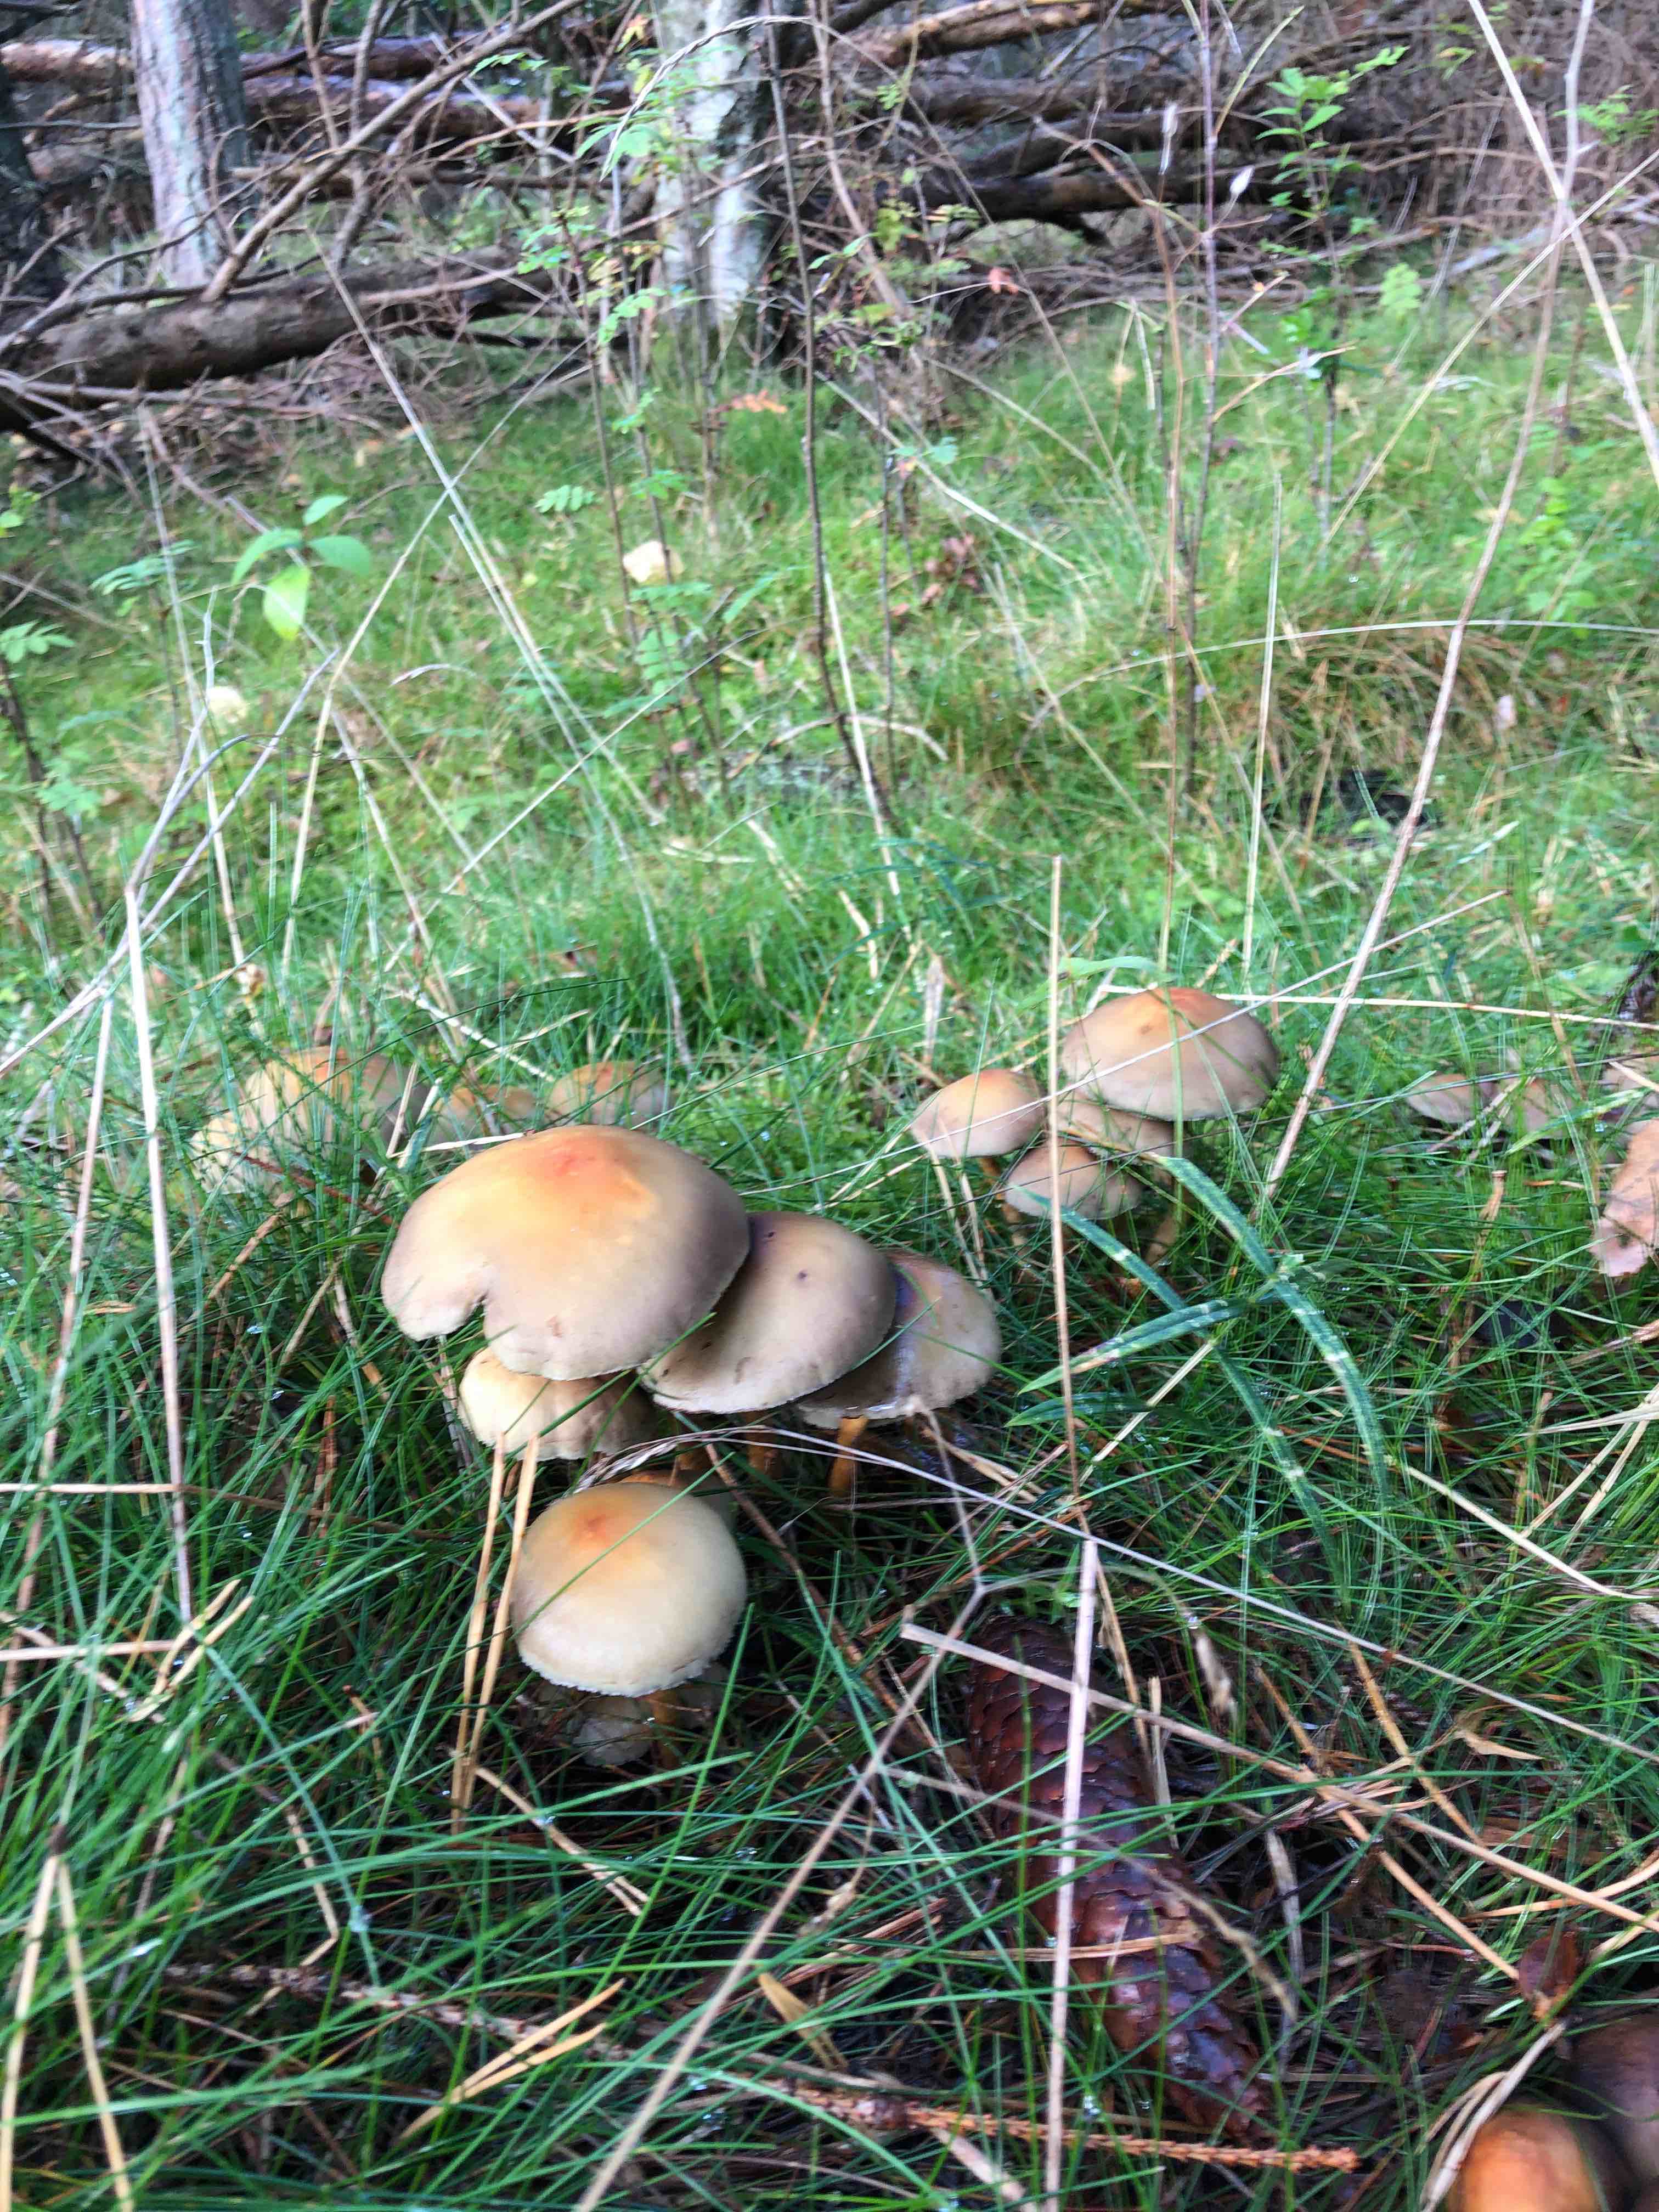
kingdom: Fungi
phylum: Basidiomycota
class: Agaricomycetes
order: Agaricales
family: Strophariaceae
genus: Hypholoma
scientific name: Hypholoma
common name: svovlhat
